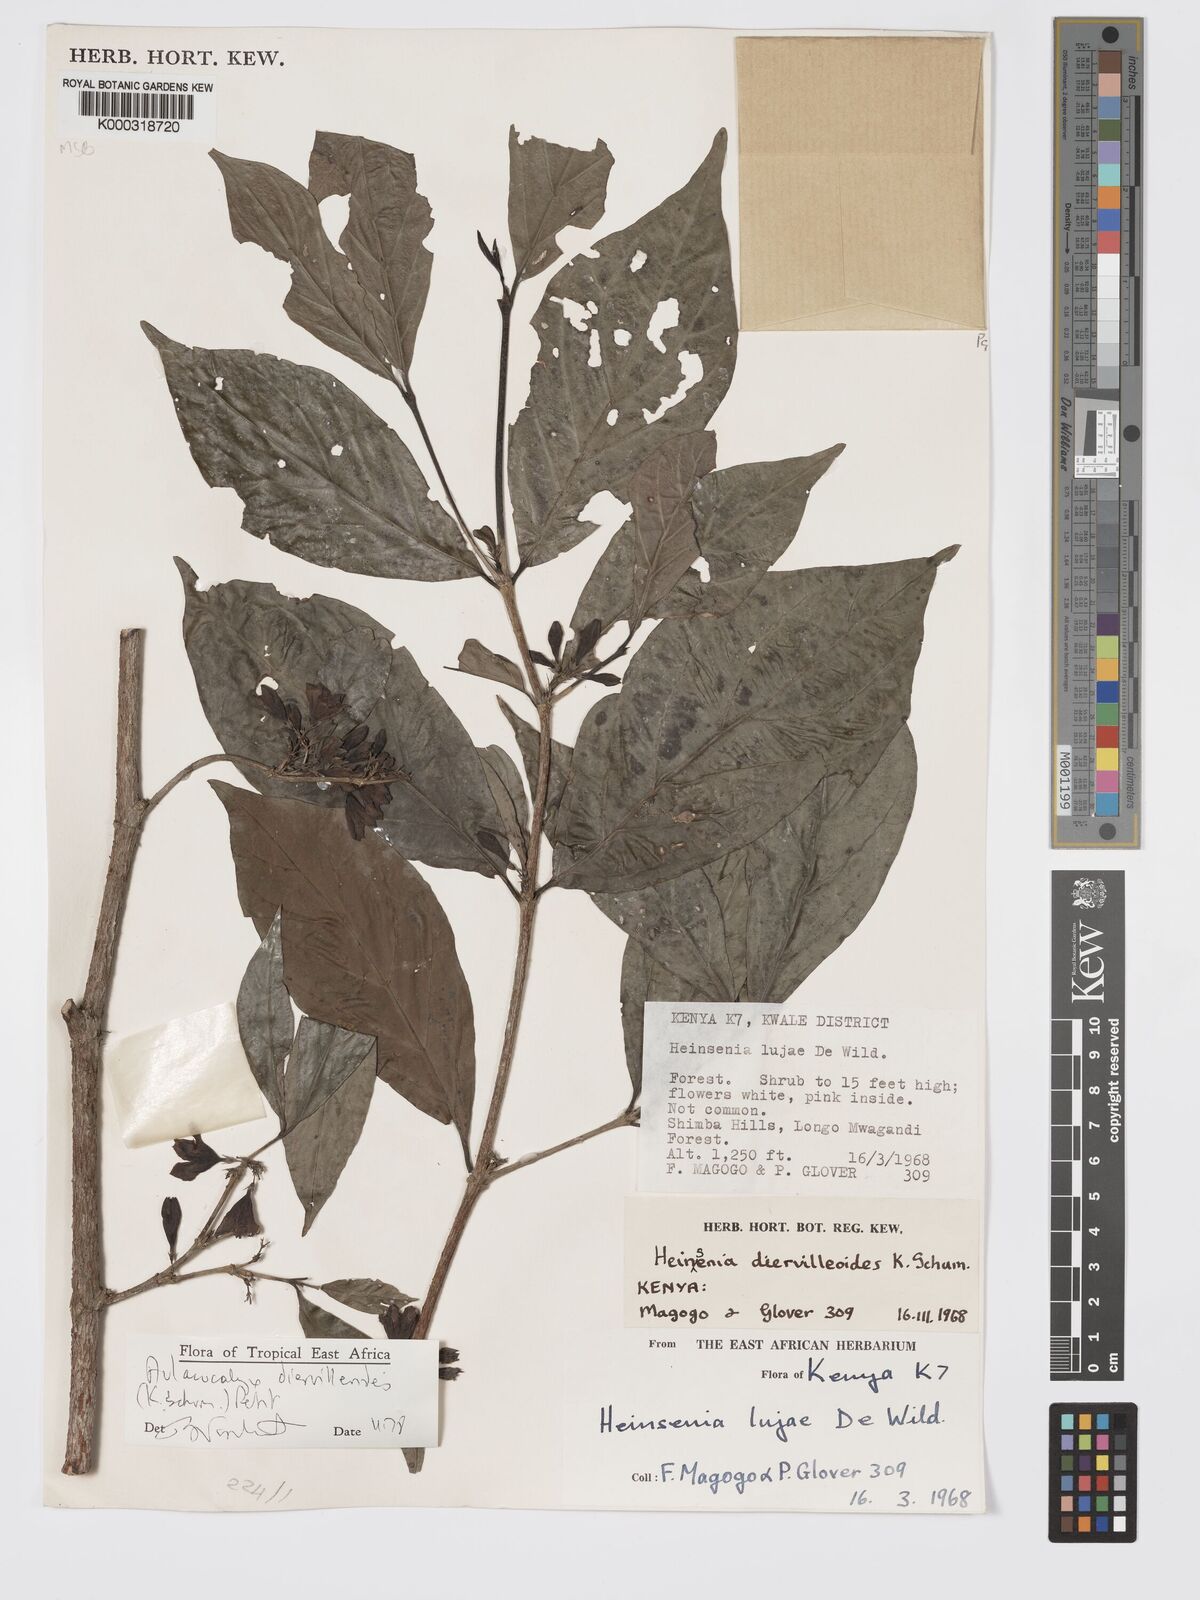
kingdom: Plantae
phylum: Tracheophyta
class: Magnoliopsida
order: Gentianales
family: Rubiaceae
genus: Heinsenia
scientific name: Heinsenia diervilleoides
